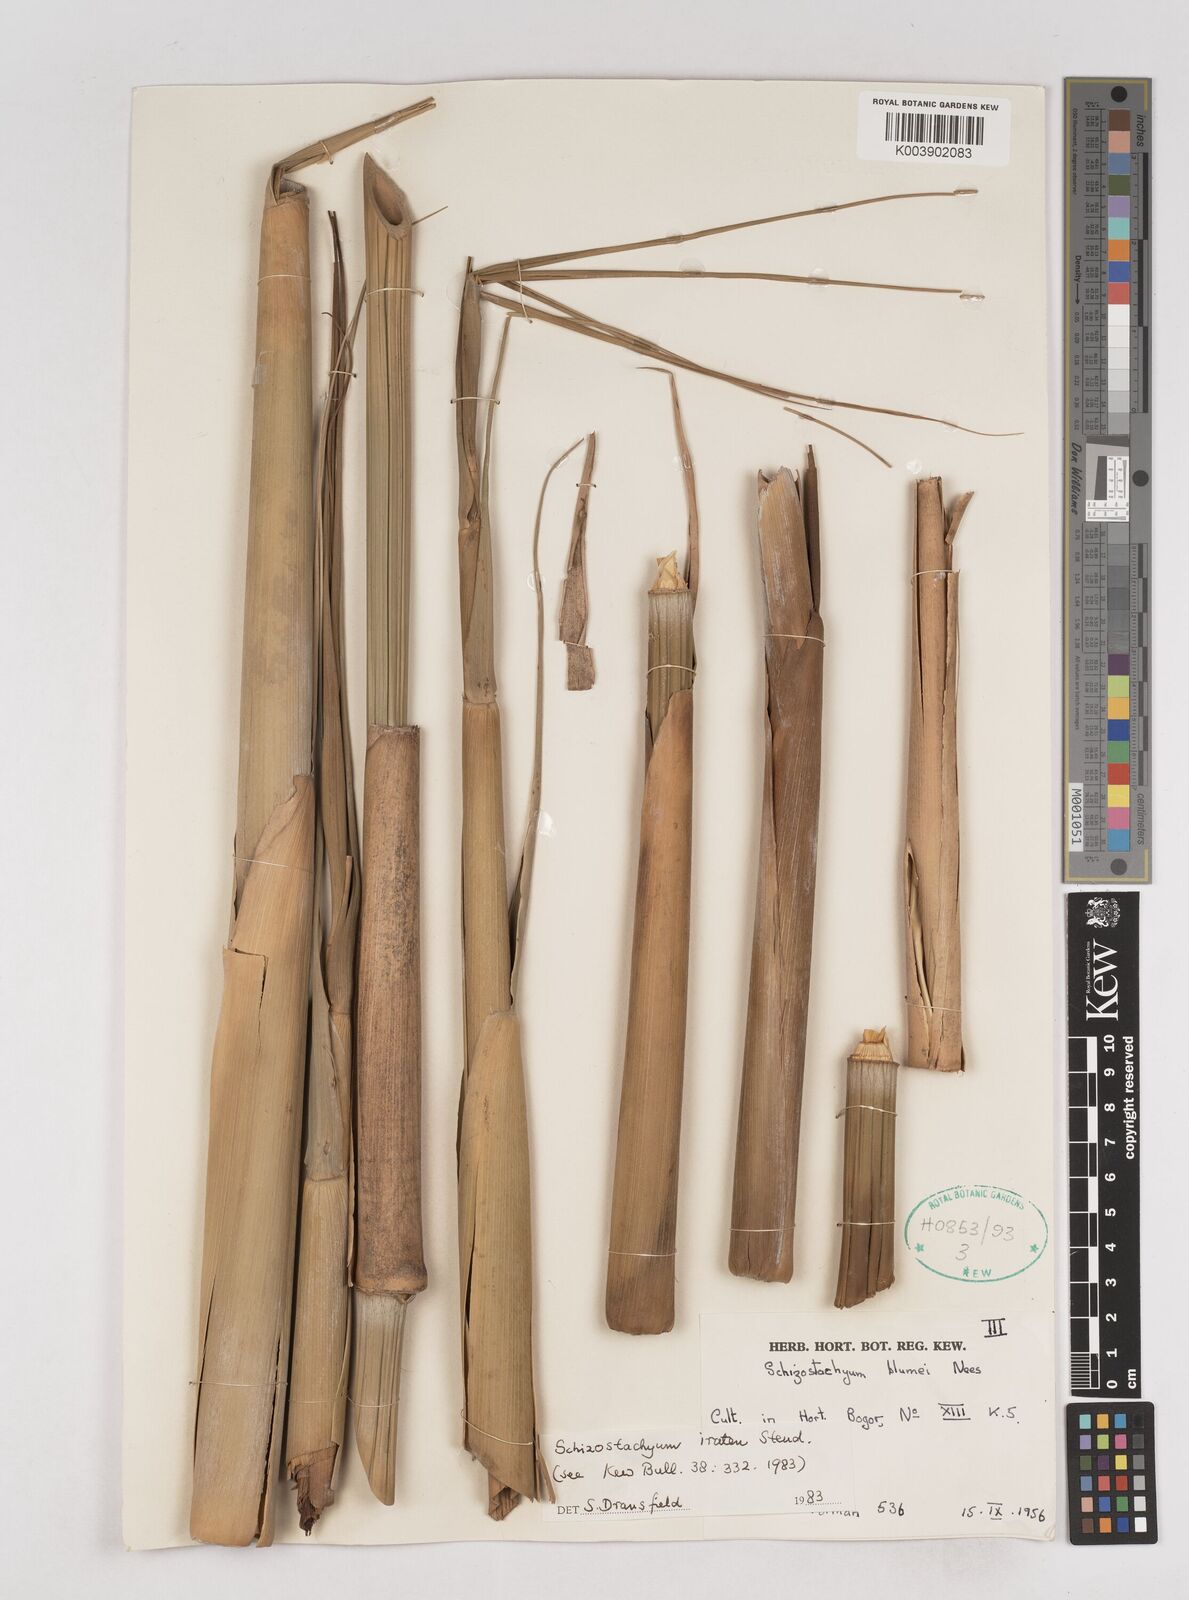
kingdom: Plantae
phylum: Tracheophyta
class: Liliopsida
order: Poales
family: Poaceae
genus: Schizostachyum
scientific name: Schizostachyum
